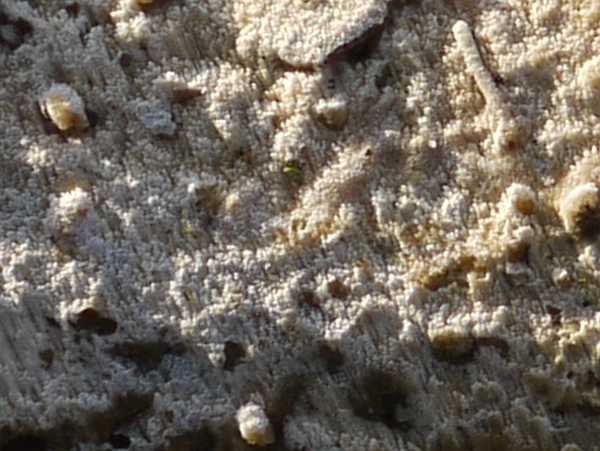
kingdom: Fungi
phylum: Basidiomycota
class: Agaricomycetes
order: Hymenochaetales
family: Schizoporaceae
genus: Xylodon
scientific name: Xylodon nesporii
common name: fintandet tandsvamp
